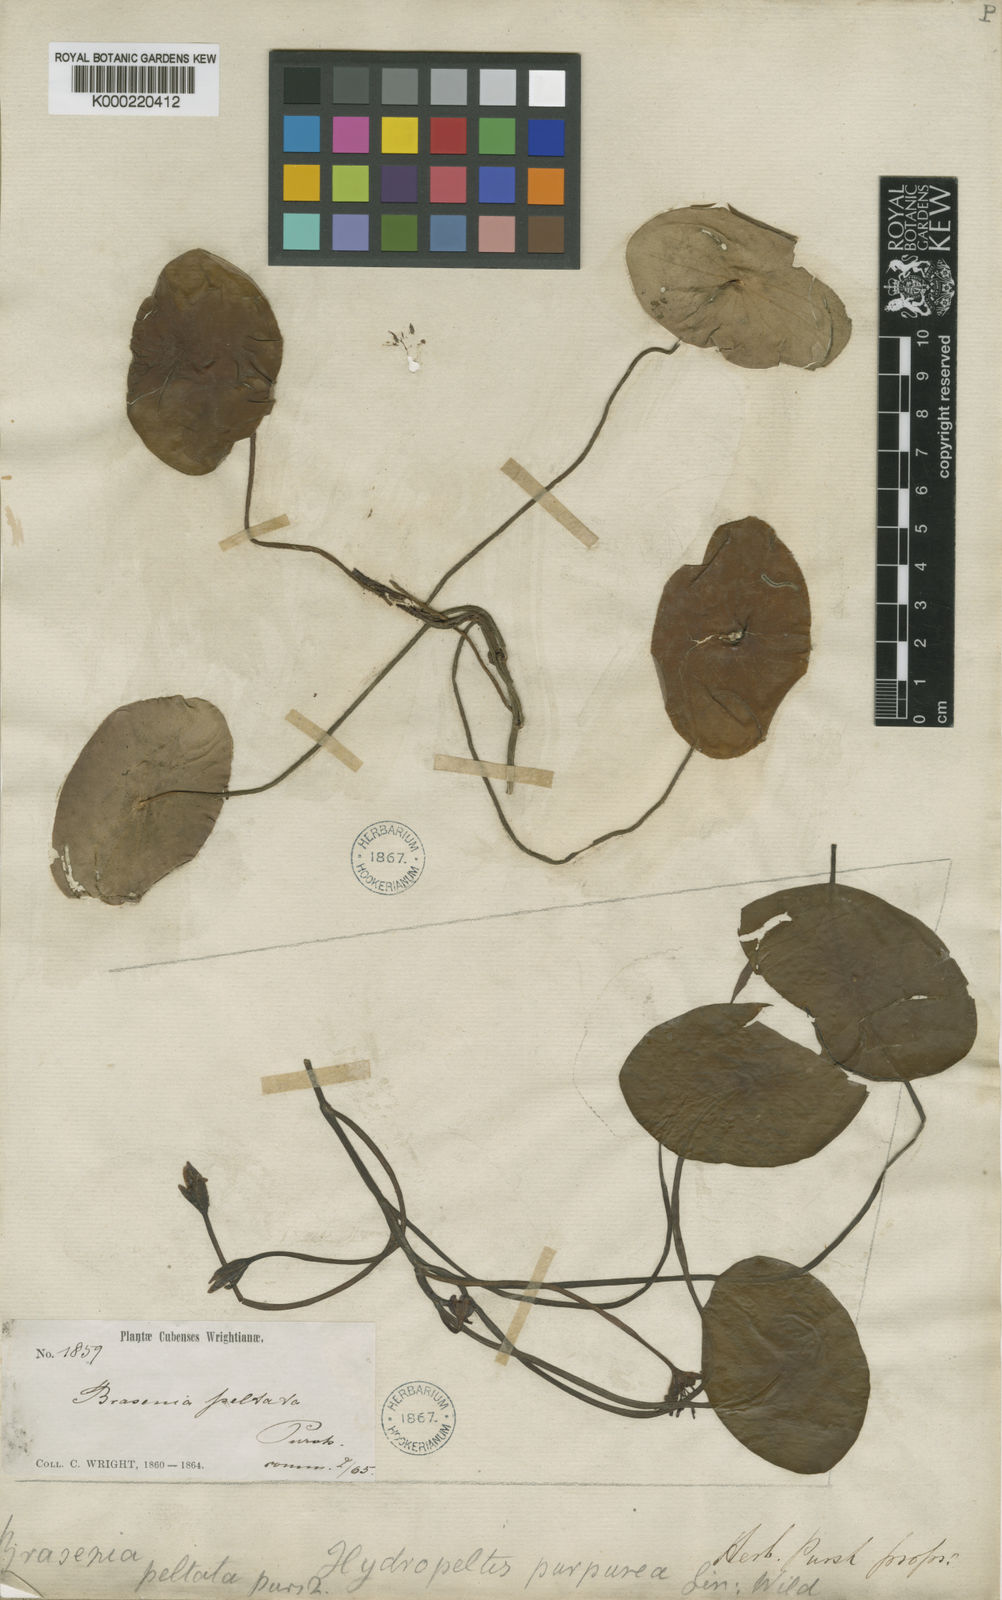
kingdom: Plantae
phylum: Tracheophyta
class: Magnoliopsida
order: Nymphaeales
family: Cabombaceae
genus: Brasenia
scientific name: Brasenia schreberi
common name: Water-shield
